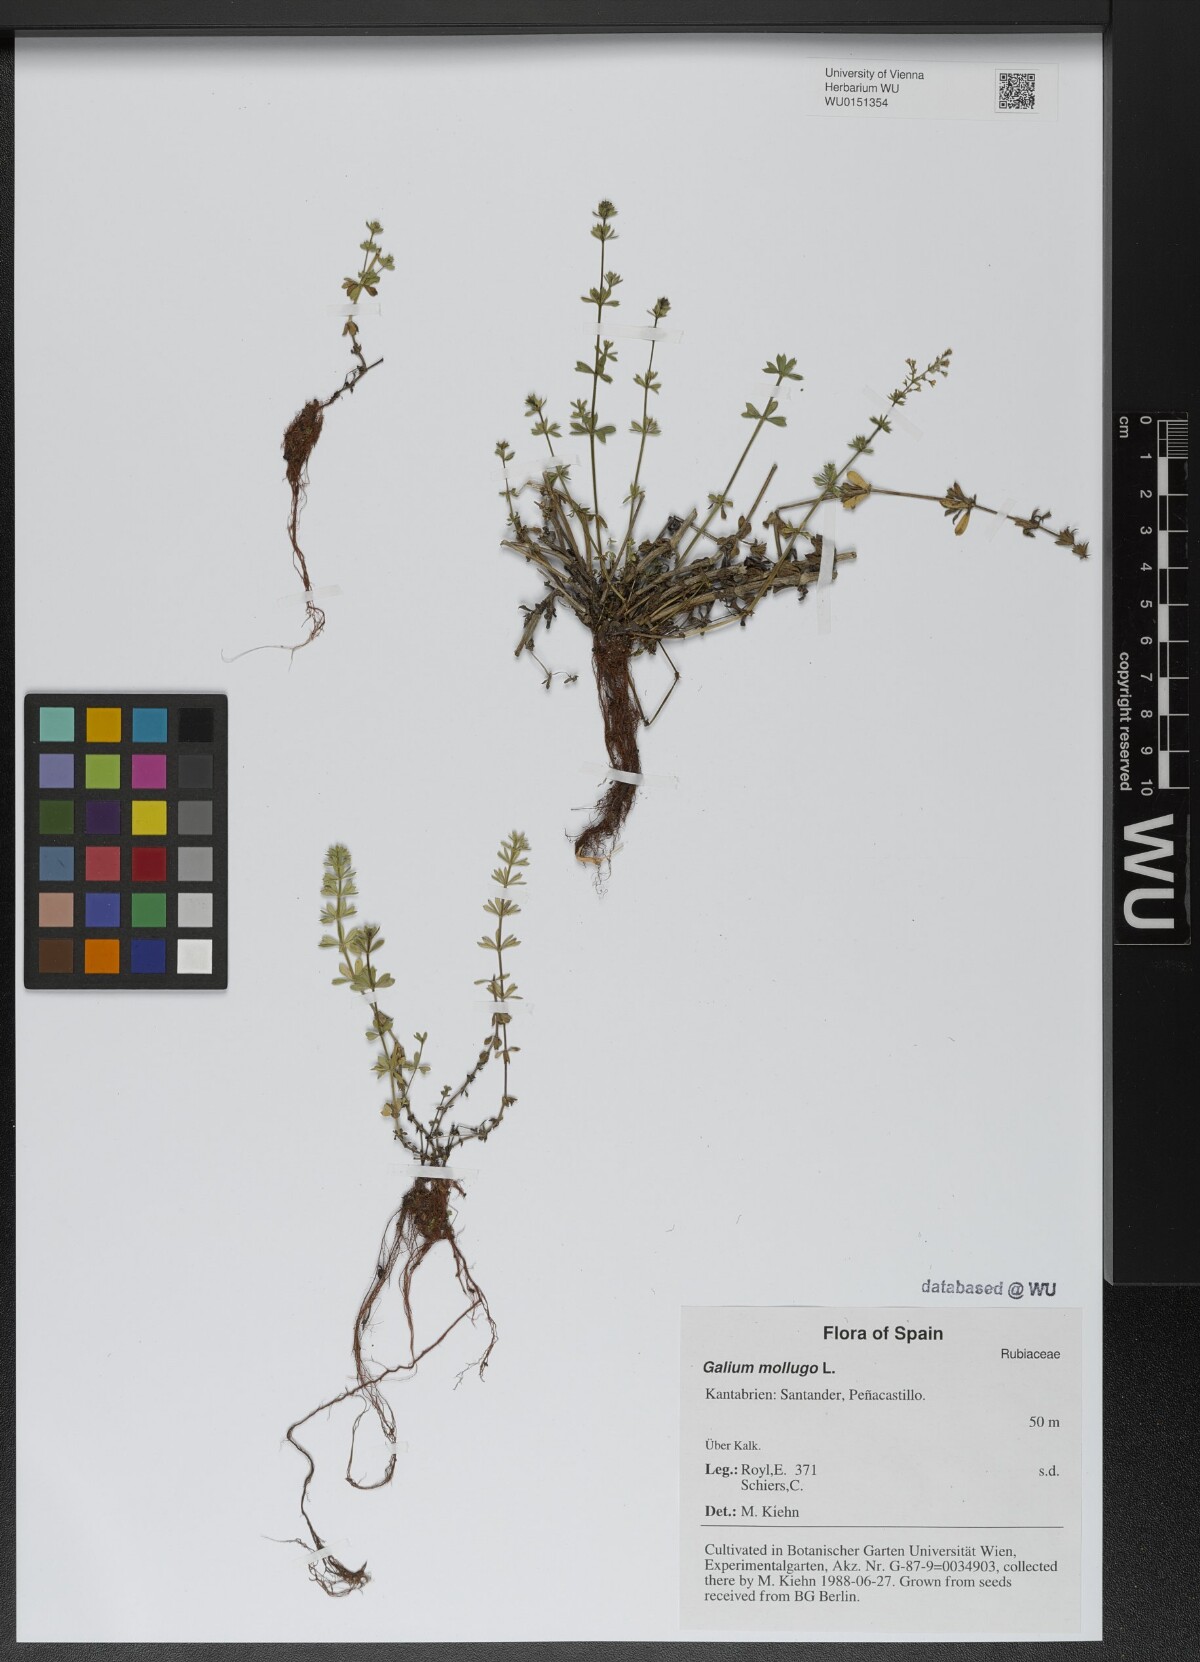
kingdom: Plantae
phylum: Tracheophyta
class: Magnoliopsida
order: Gentianales
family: Rubiaceae
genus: Galium
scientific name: Galium mollugo
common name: Hedge bedstraw
